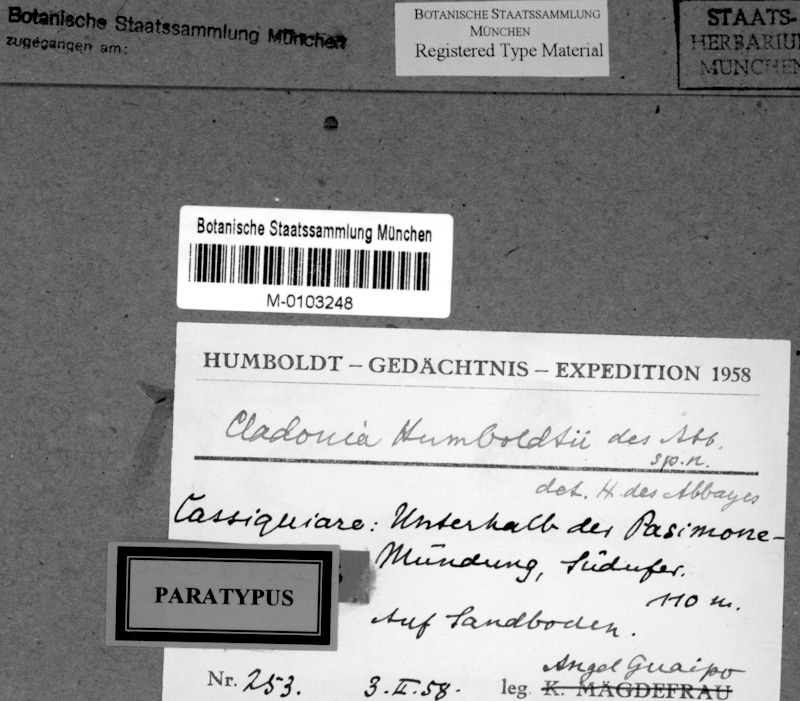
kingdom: Fungi
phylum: Ascomycota
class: Lecanoromycetes
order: Lecanorales
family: Cladoniaceae
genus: Cladonia
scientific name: Cladonia pertricosa
